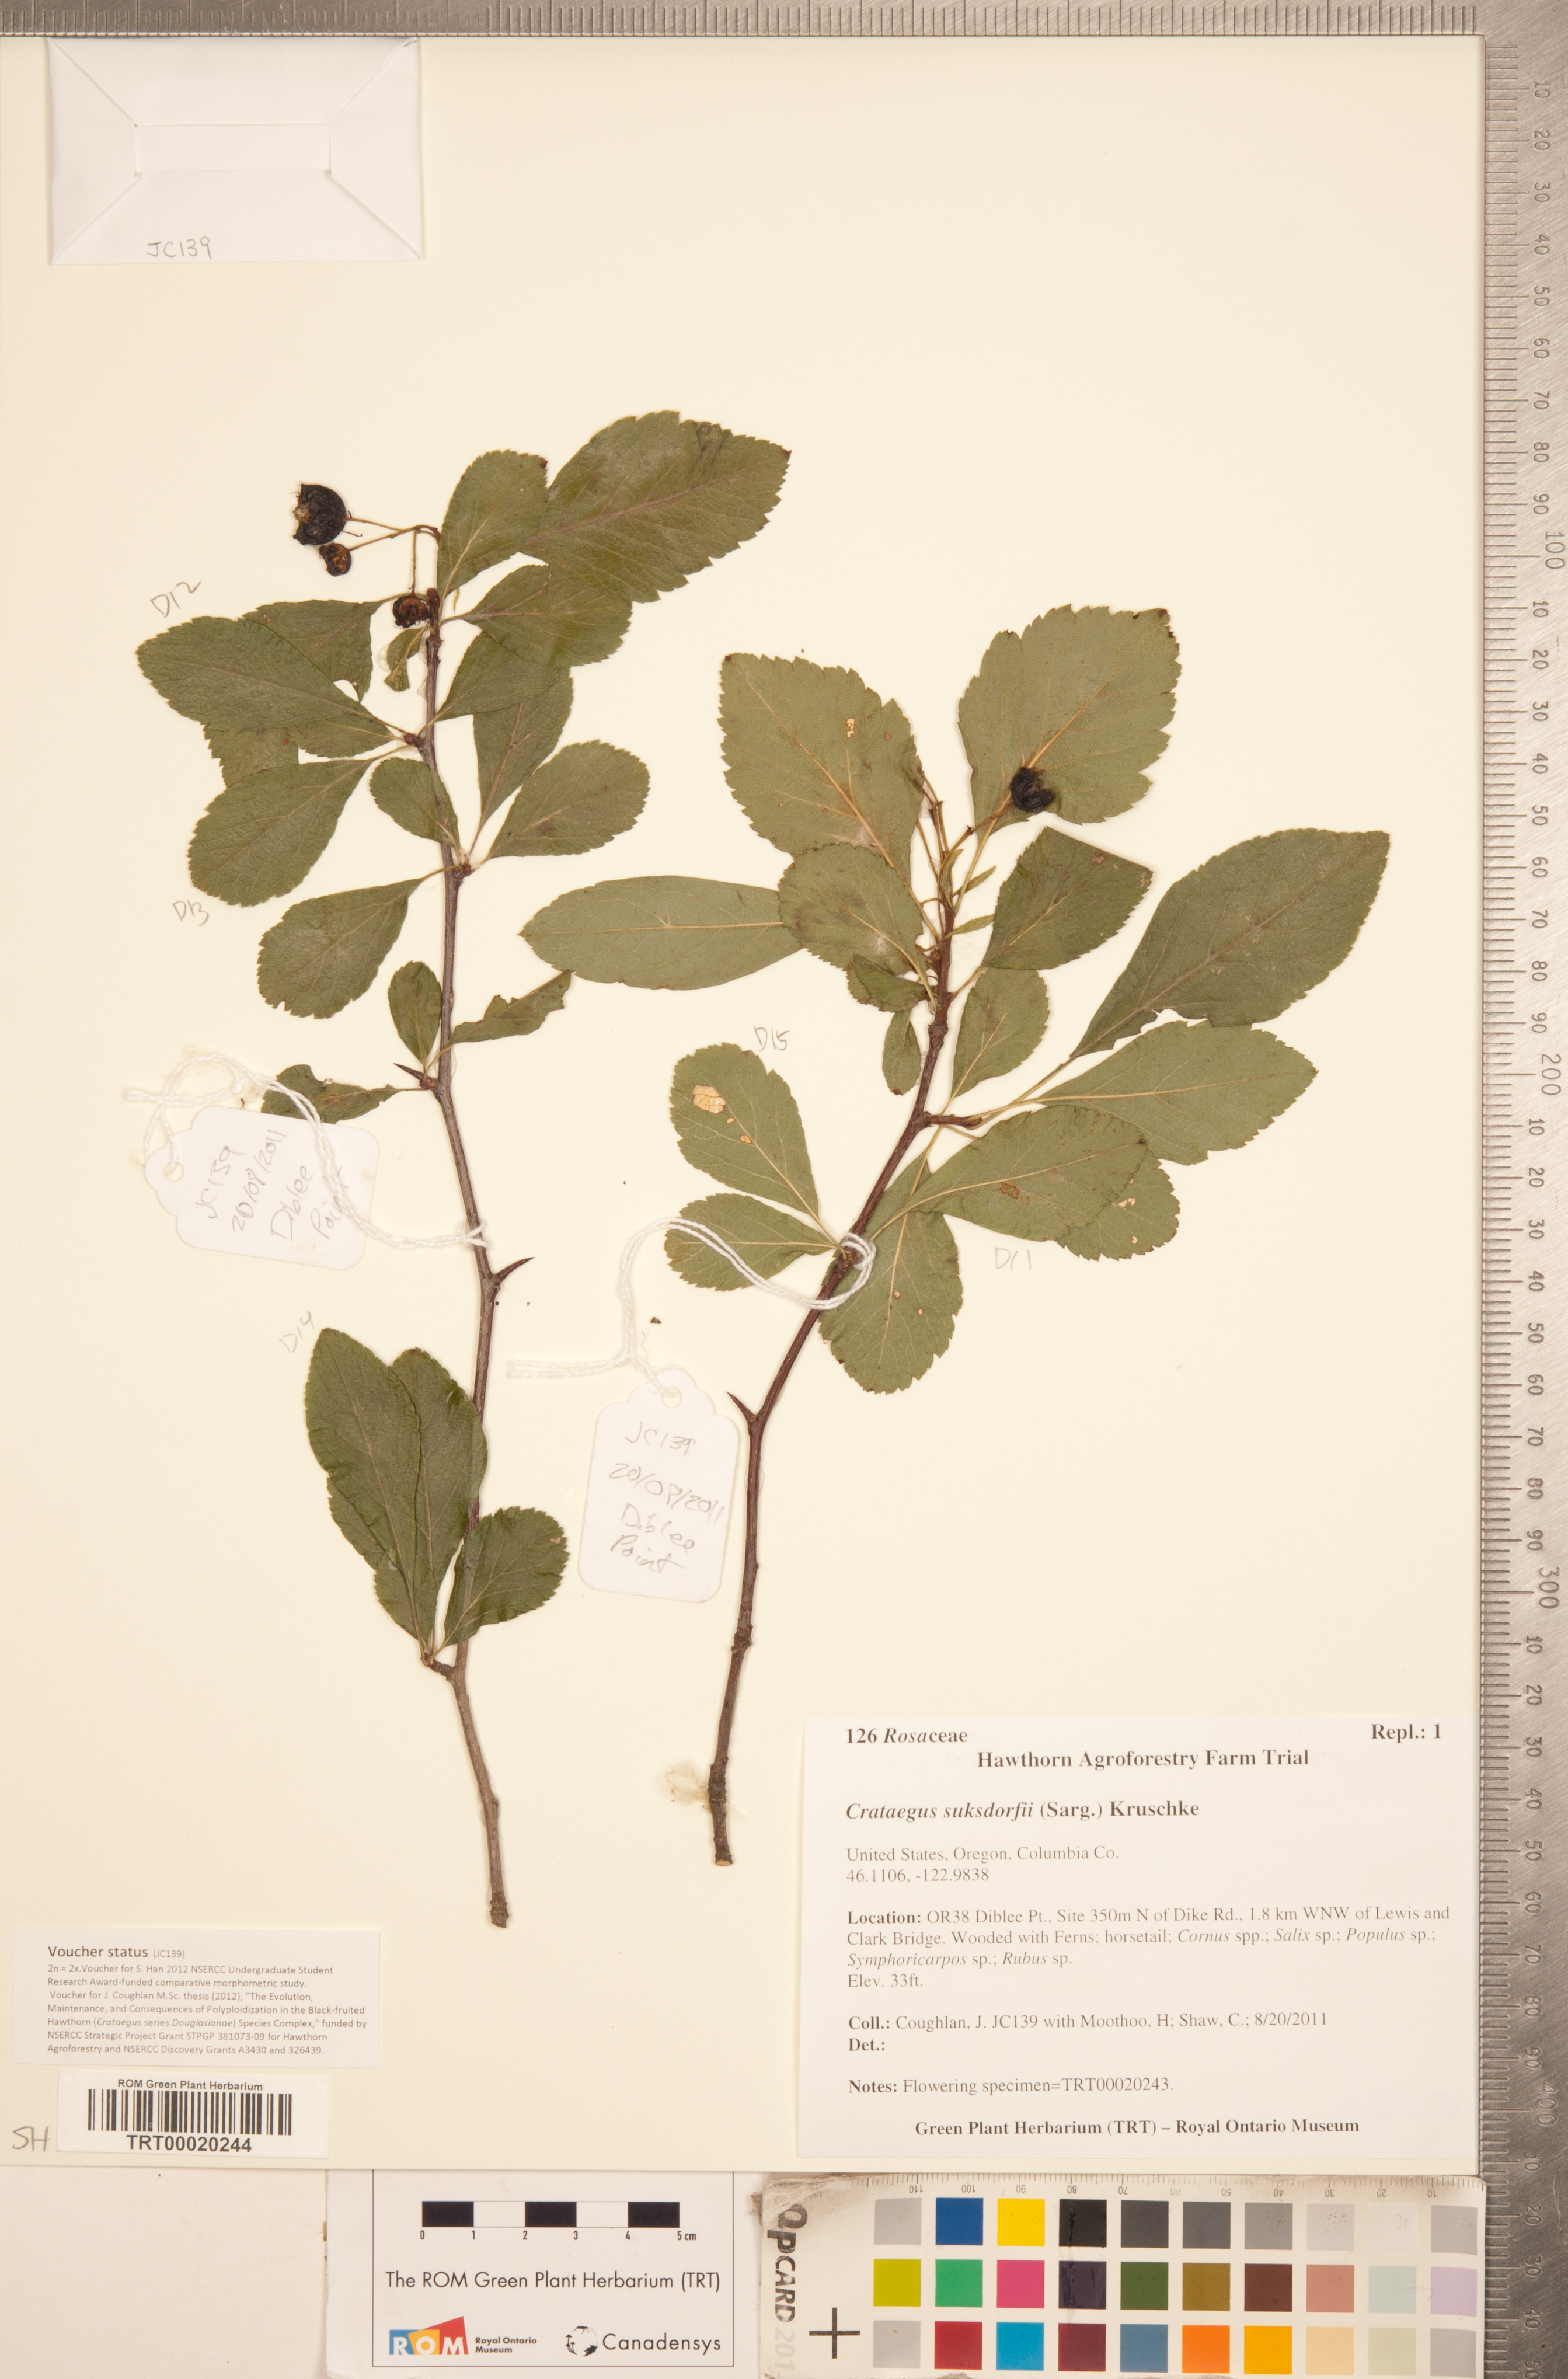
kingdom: Plantae
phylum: Tracheophyta
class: Magnoliopsida
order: Rosales
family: Rosaceae
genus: Crataegus
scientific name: Crataegus gaylussacia
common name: Huckleberry hawthorn
